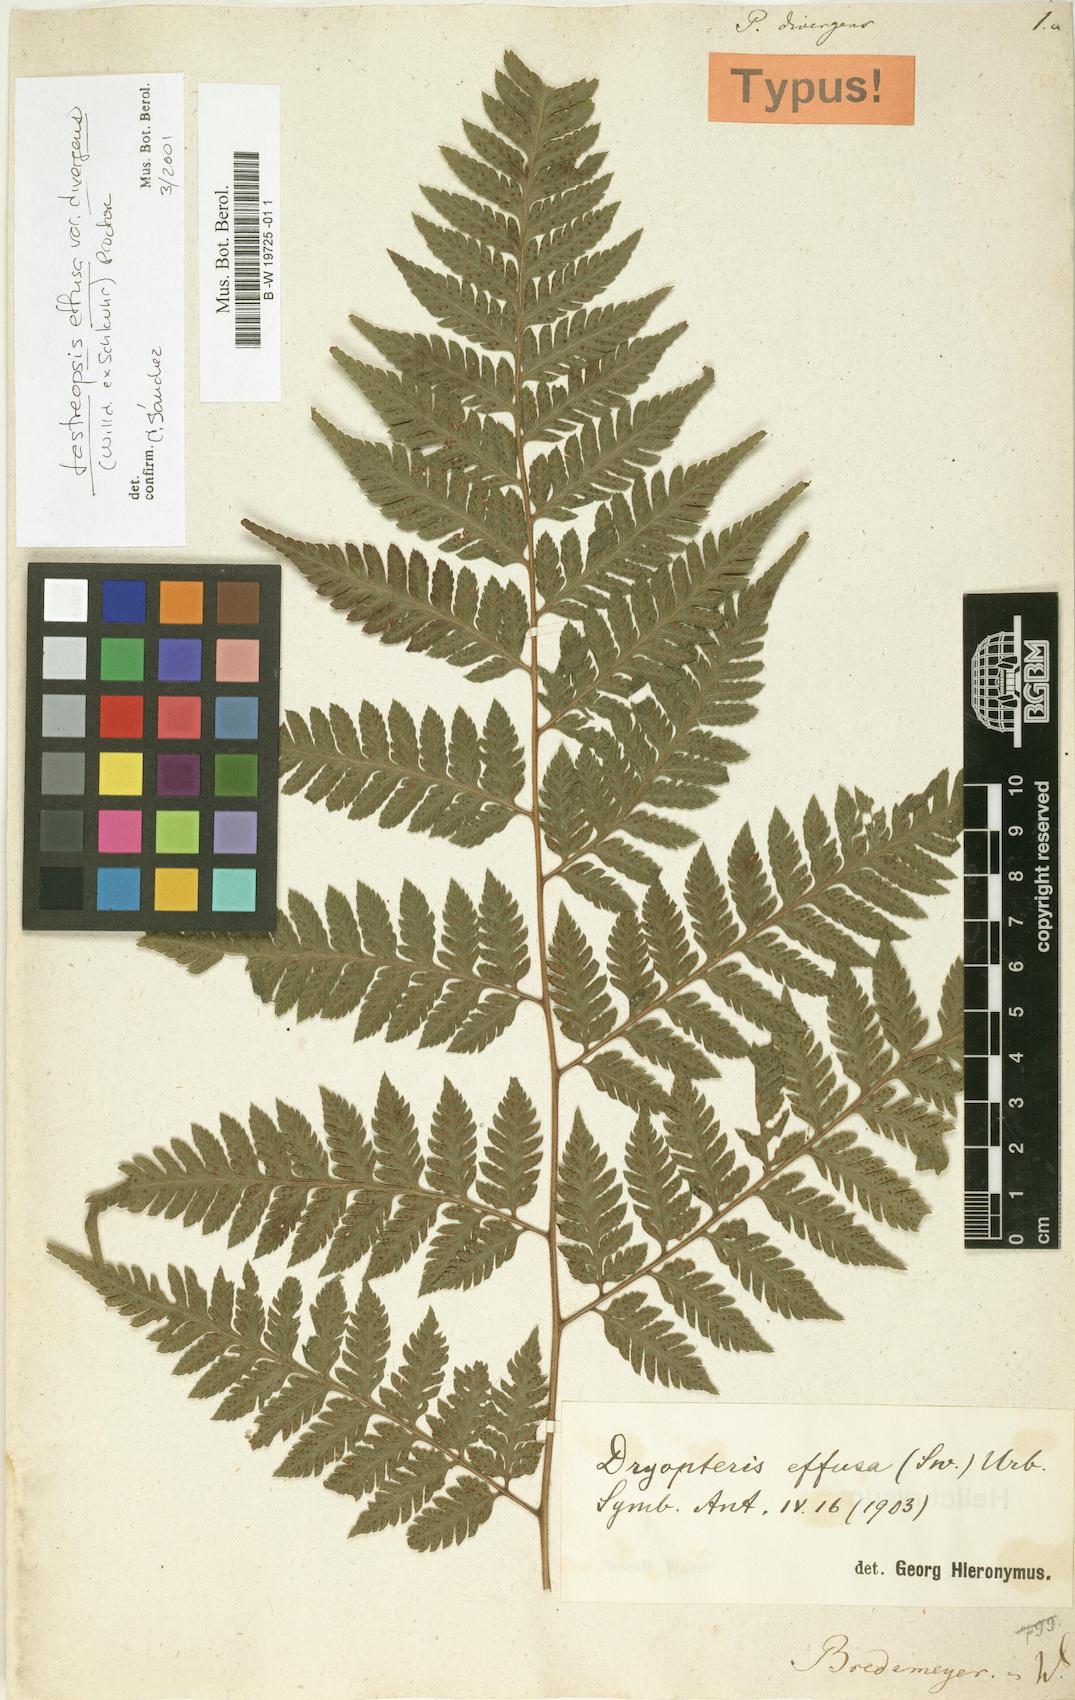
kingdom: Plantae
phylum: Tracheophyta
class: Polypodiopsida
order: Polypodiales
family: Dryopteridaceae
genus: Parapolystichum
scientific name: Parapolystichum effusum
